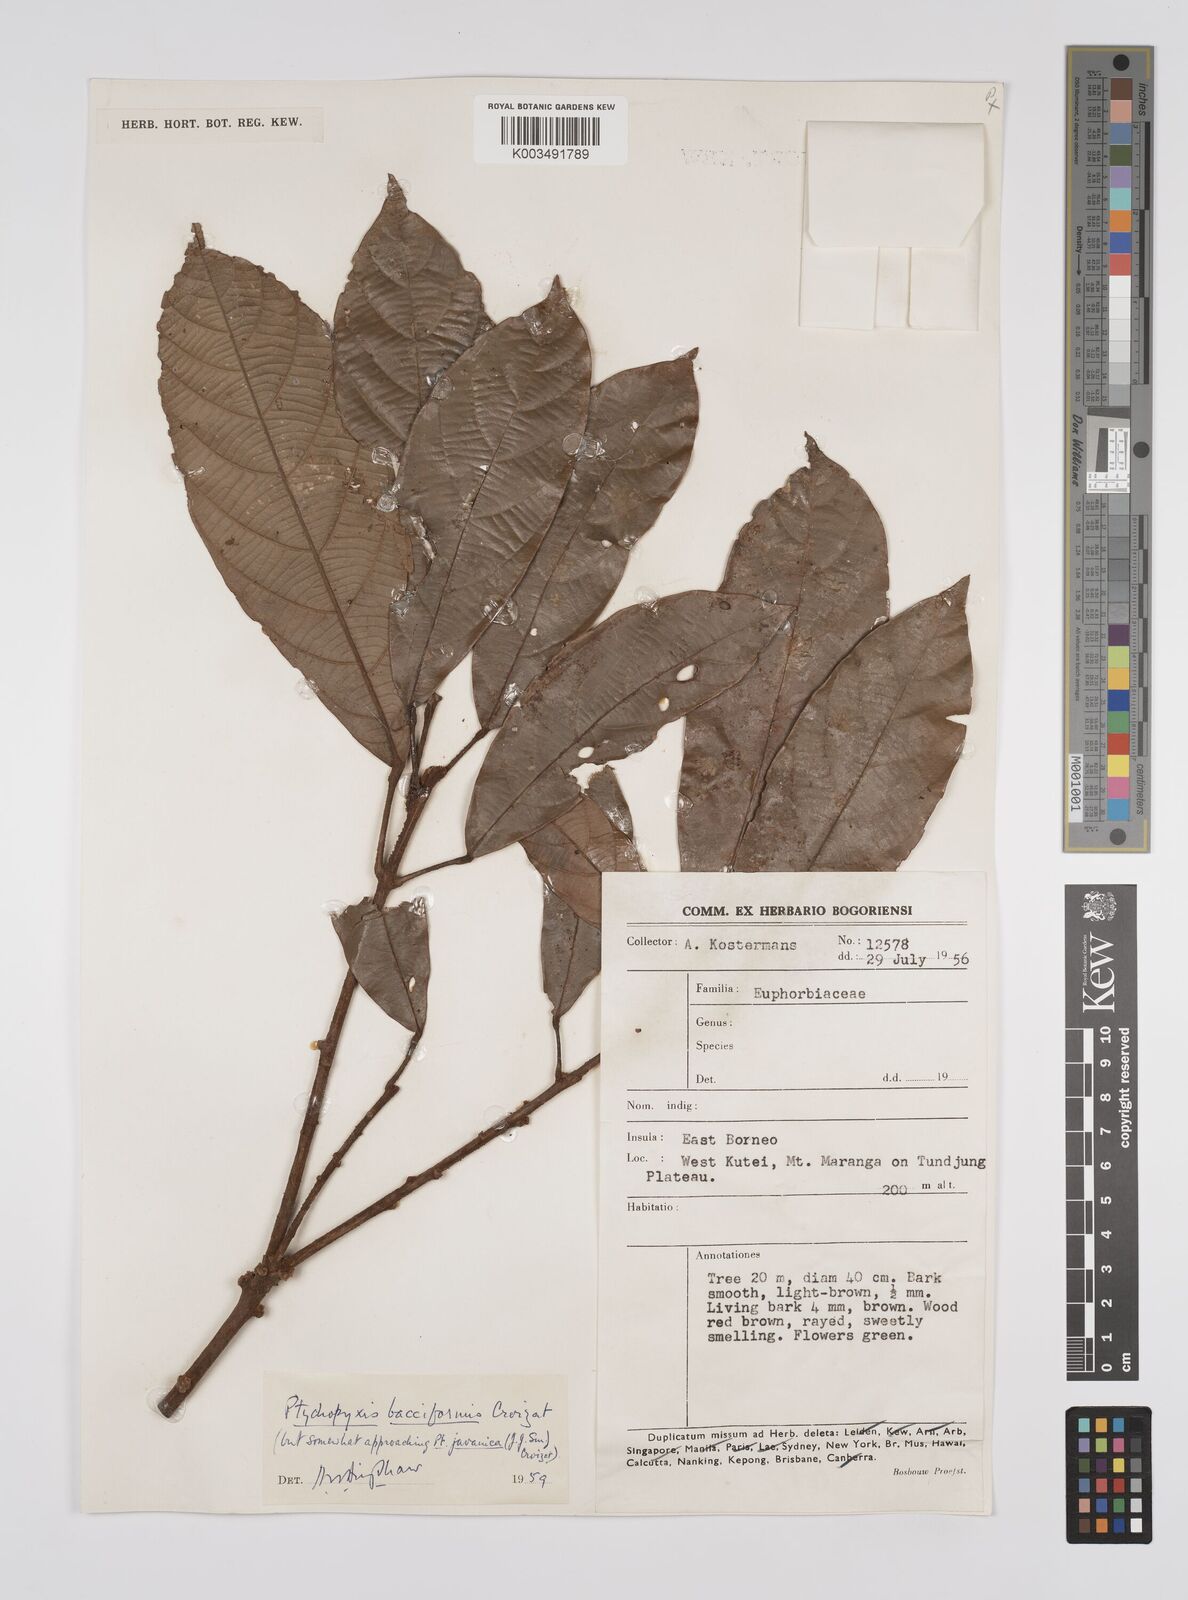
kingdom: Plantae
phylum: Tracheophyta
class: Magnoliopsida
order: Malpighiales
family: Euphorbiaceae
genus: Ptychopyxis
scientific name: Ptychopyxis bacciformis
